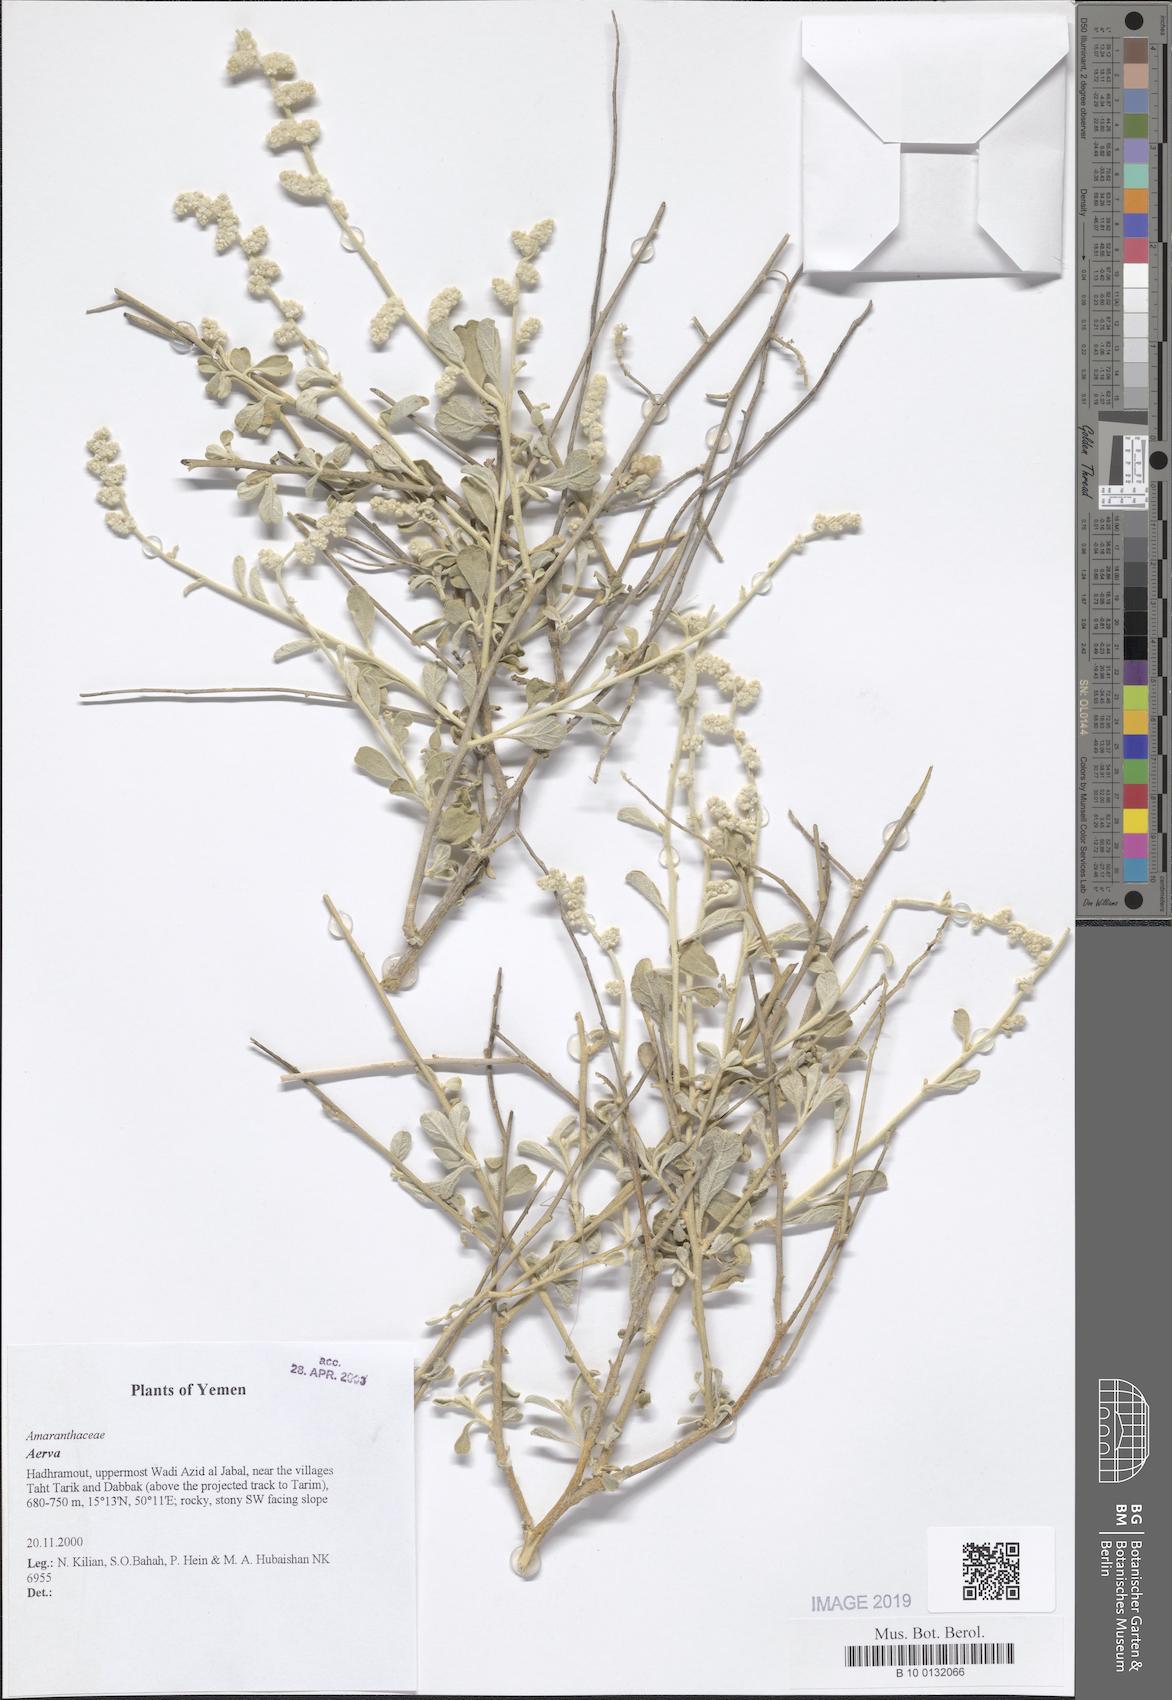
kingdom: Plantae
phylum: Tracheophyta
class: Magnoliopsida
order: Caryophyllales
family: Amaranthaceae
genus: Aerva
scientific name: Aerva
